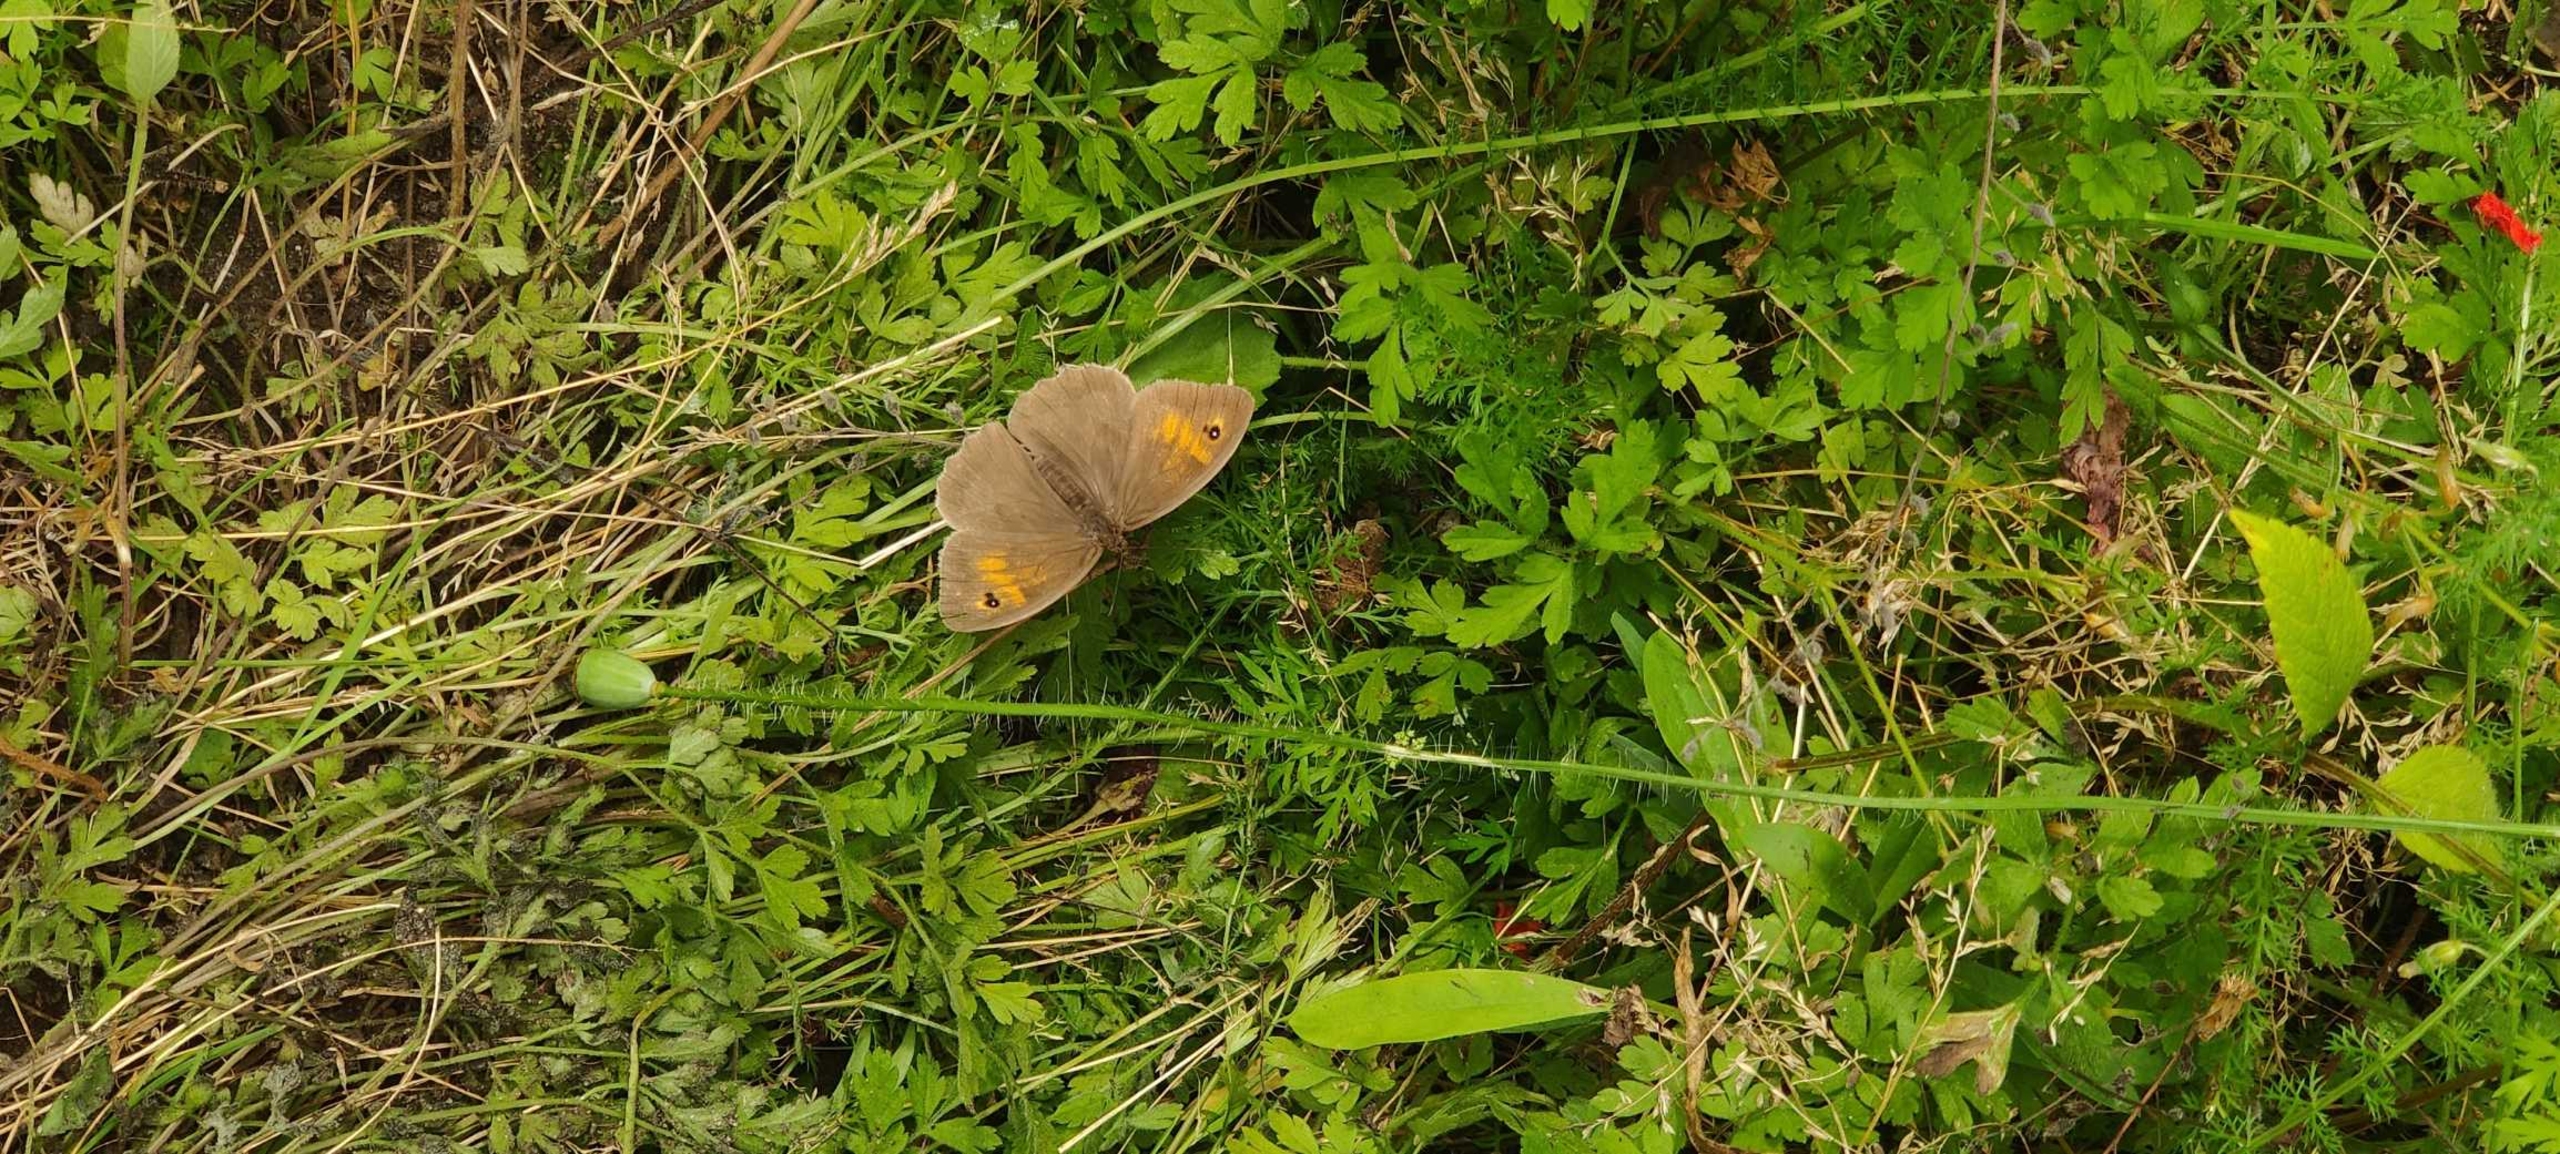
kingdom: Animalia
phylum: Arthropoda
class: Insecta
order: Lepidoptera
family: Nymphalidae
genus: Maniola
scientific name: Maniola jurtina
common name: Græsrandøje
